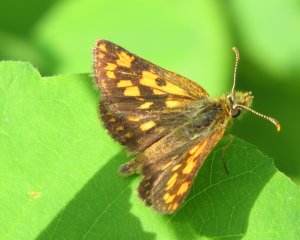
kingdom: Animalia
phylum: Arthropoda
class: Insecta
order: Lepidoptera
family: Hesperiidae
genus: Carterocephalus
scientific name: Carterocephalus palaemon
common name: Chequered Skipper
